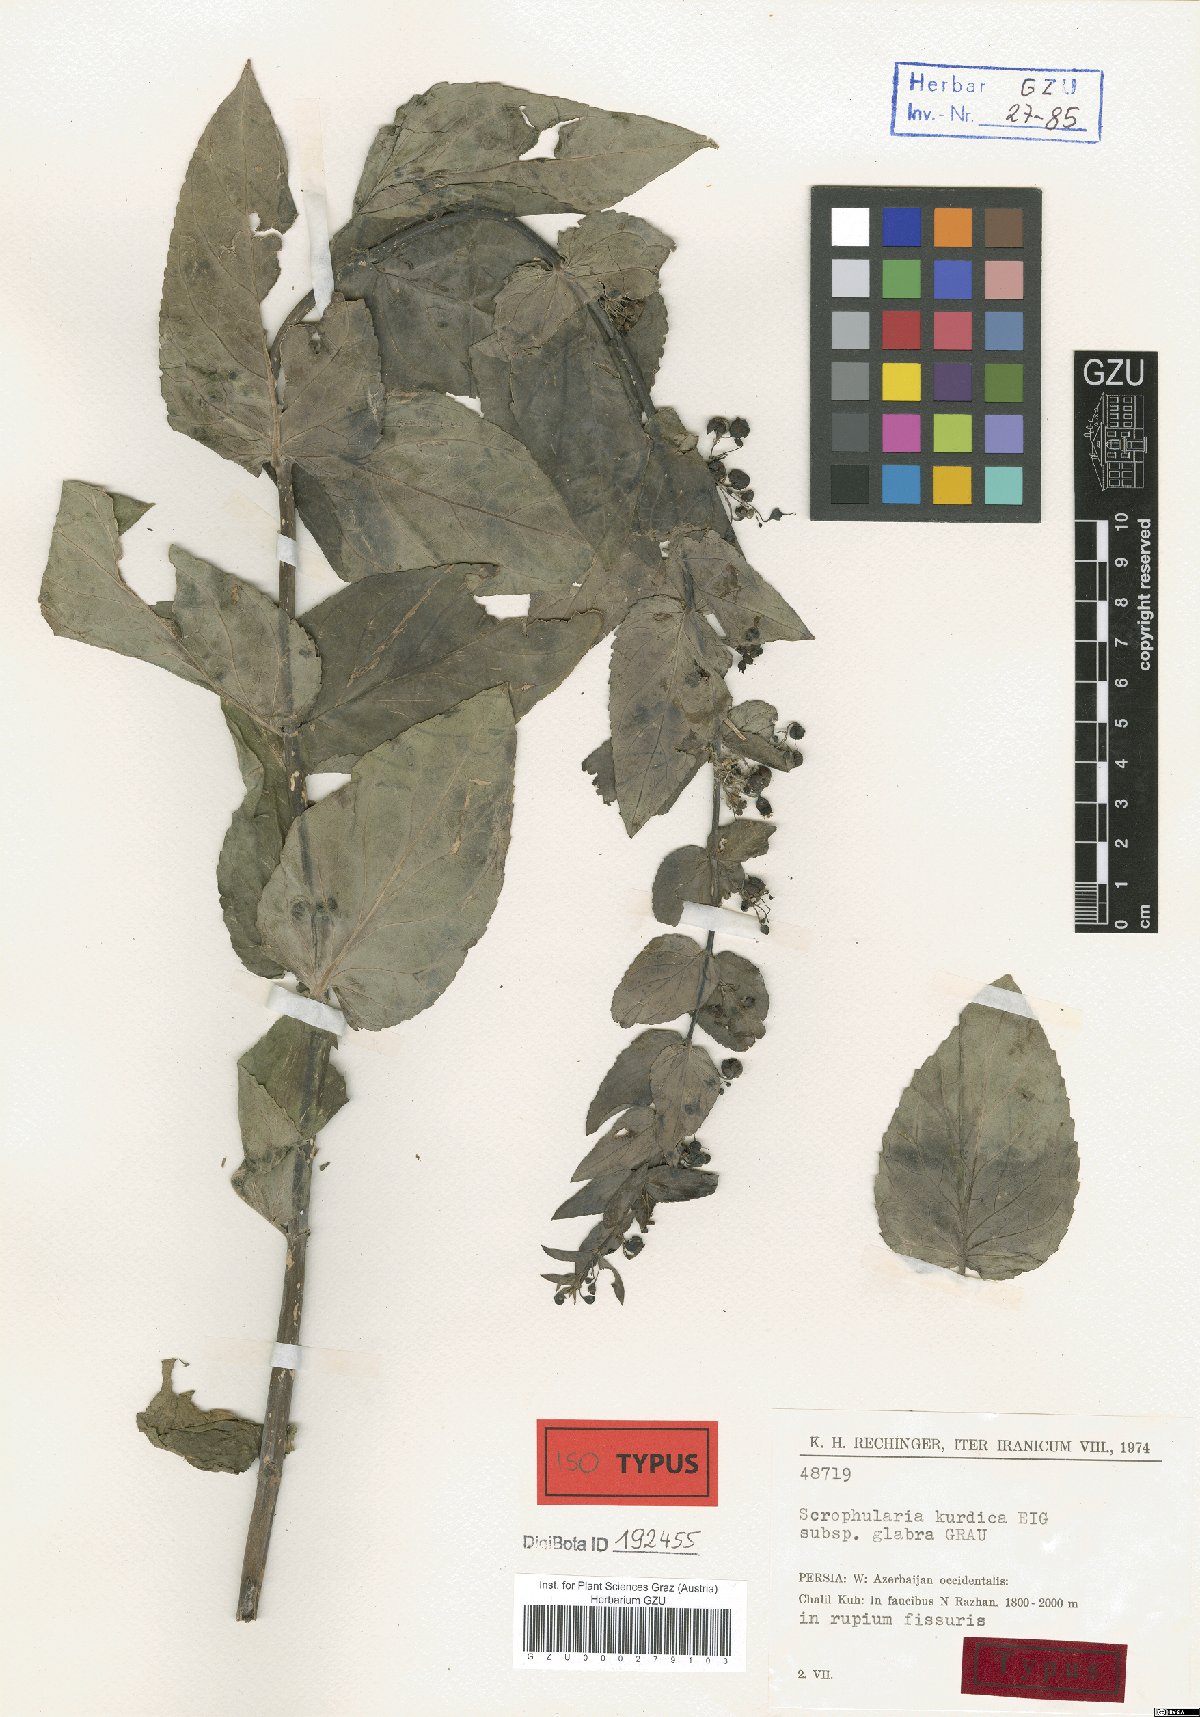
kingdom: Plantae
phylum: Tracheophyta
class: Magnoliopsida
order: Lamiales
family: Scrophulariaceae
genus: Scrophularia
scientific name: Scrophularia kurdica
